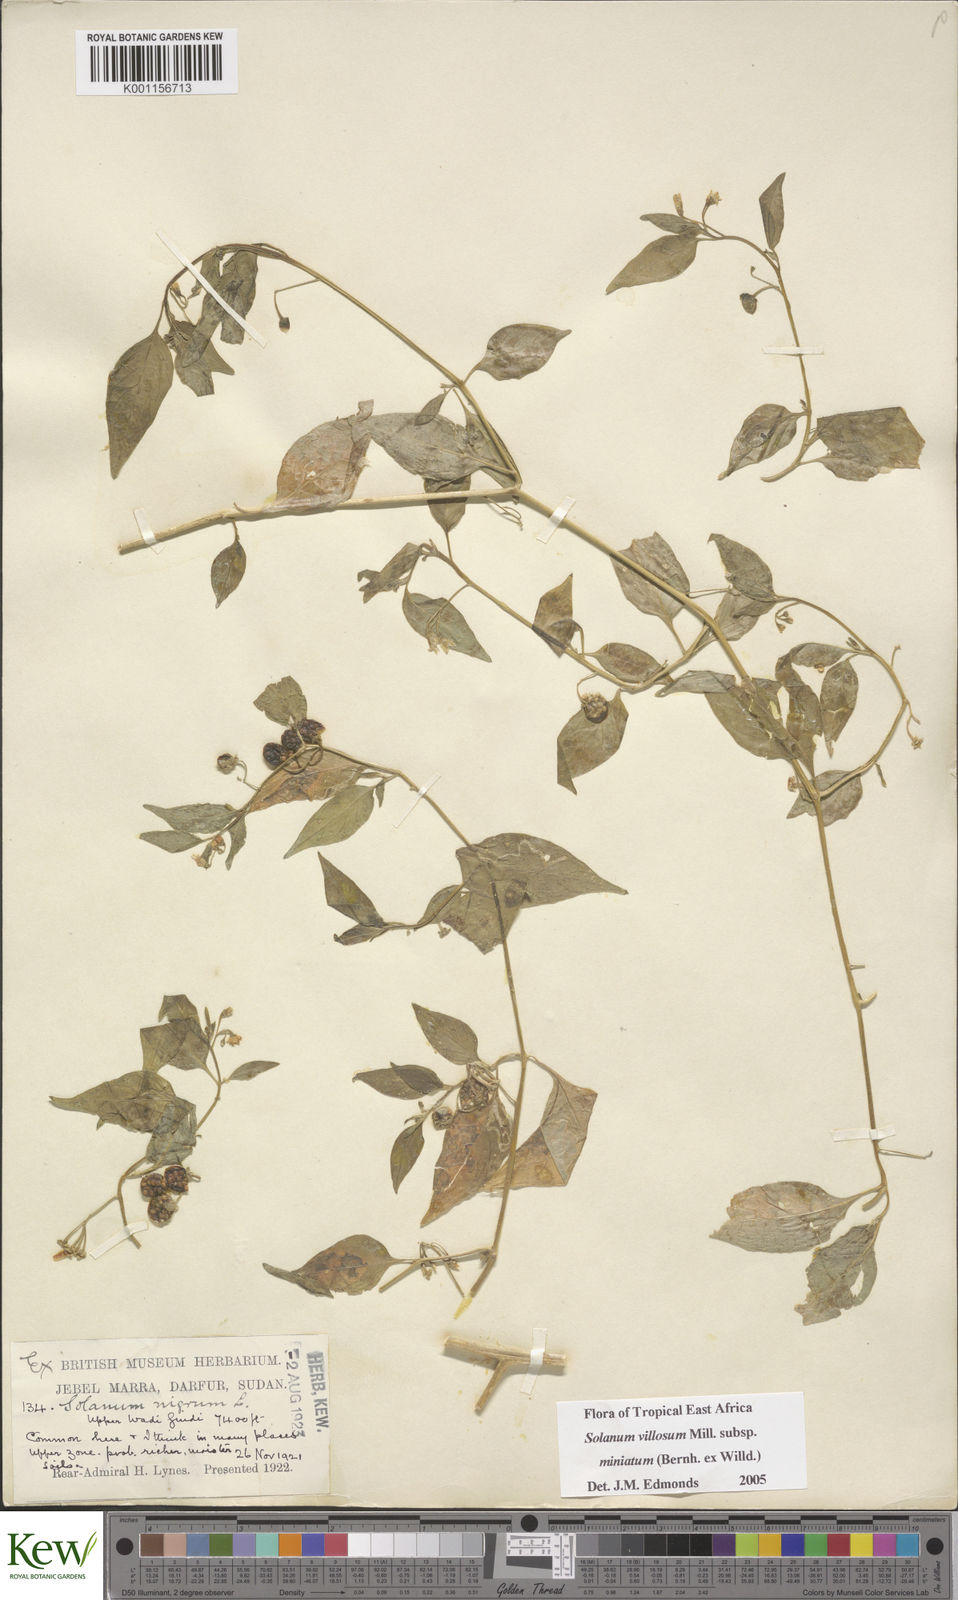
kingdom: Plantae
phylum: Tracheophyta
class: Magnoliopsida
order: Solanales
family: Solanaceae
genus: Solanum
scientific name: Solanum villosum
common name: Red nightshade
